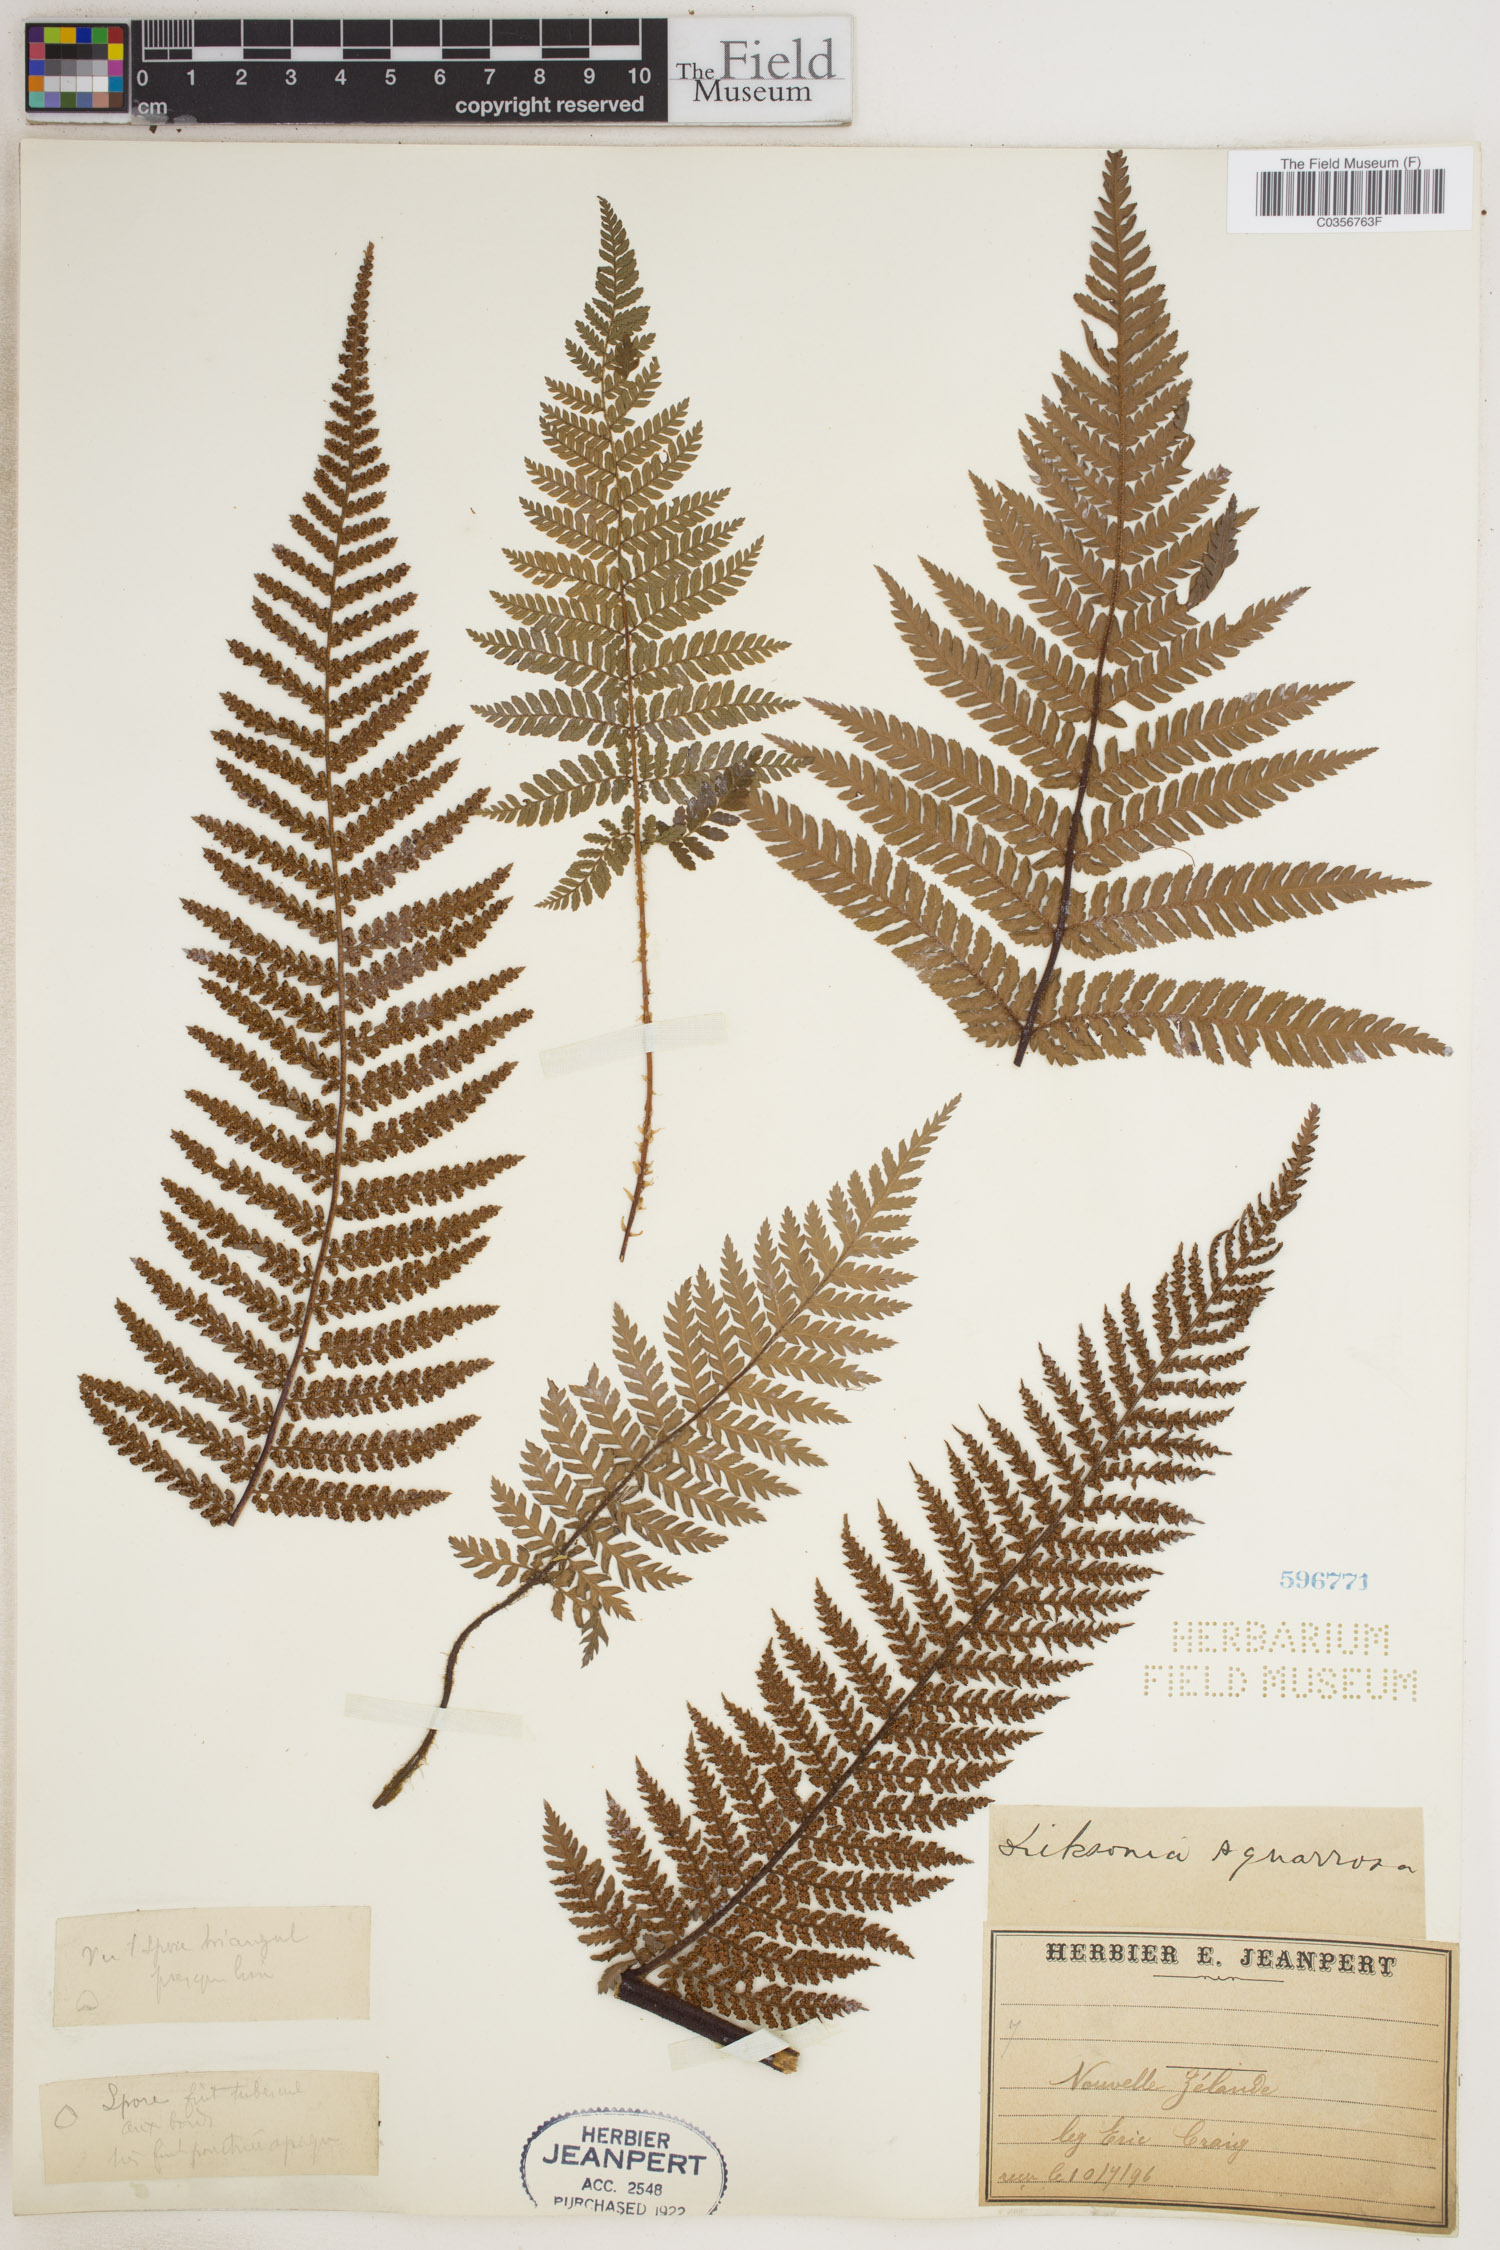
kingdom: Plantae
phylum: Tracheophyta
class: Polypodiopsida
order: Cyatheales
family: Dicksoniaceae
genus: Dicksonia
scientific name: Dicksonia squarrosa
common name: Hard treefern
